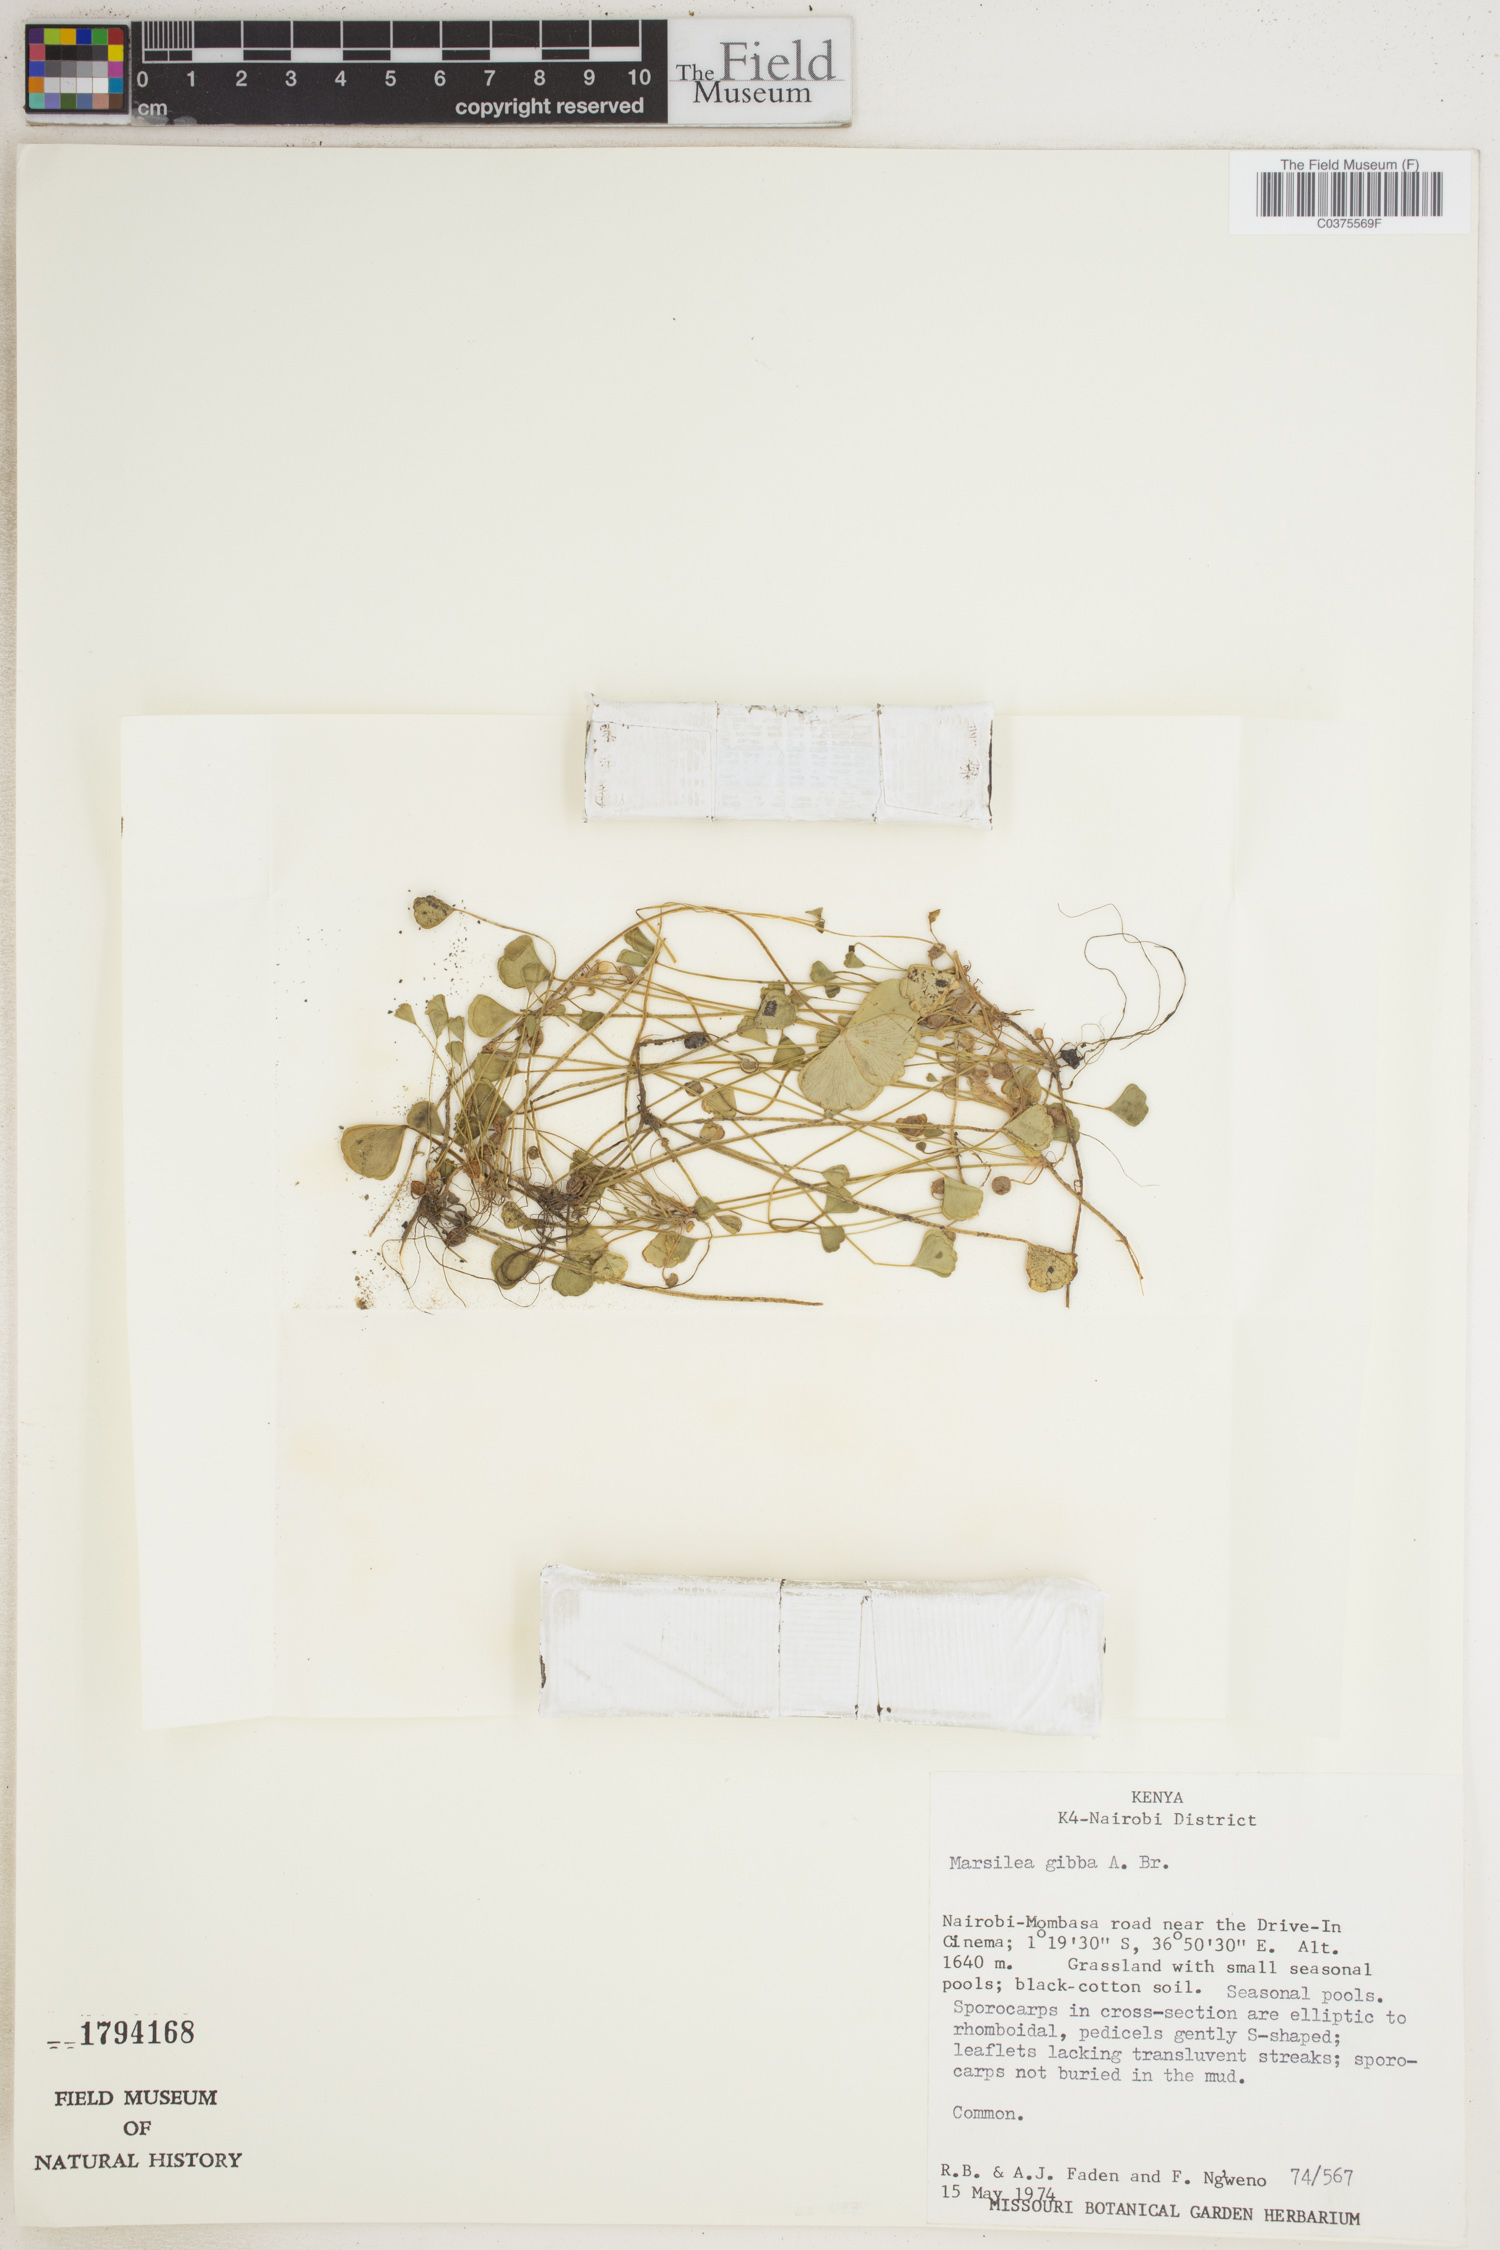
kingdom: Plantae
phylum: Tracheophyta
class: Polypodiopsida
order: Salviniales
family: Marsileaceae
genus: Marsilea
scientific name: Marsilea gibba
